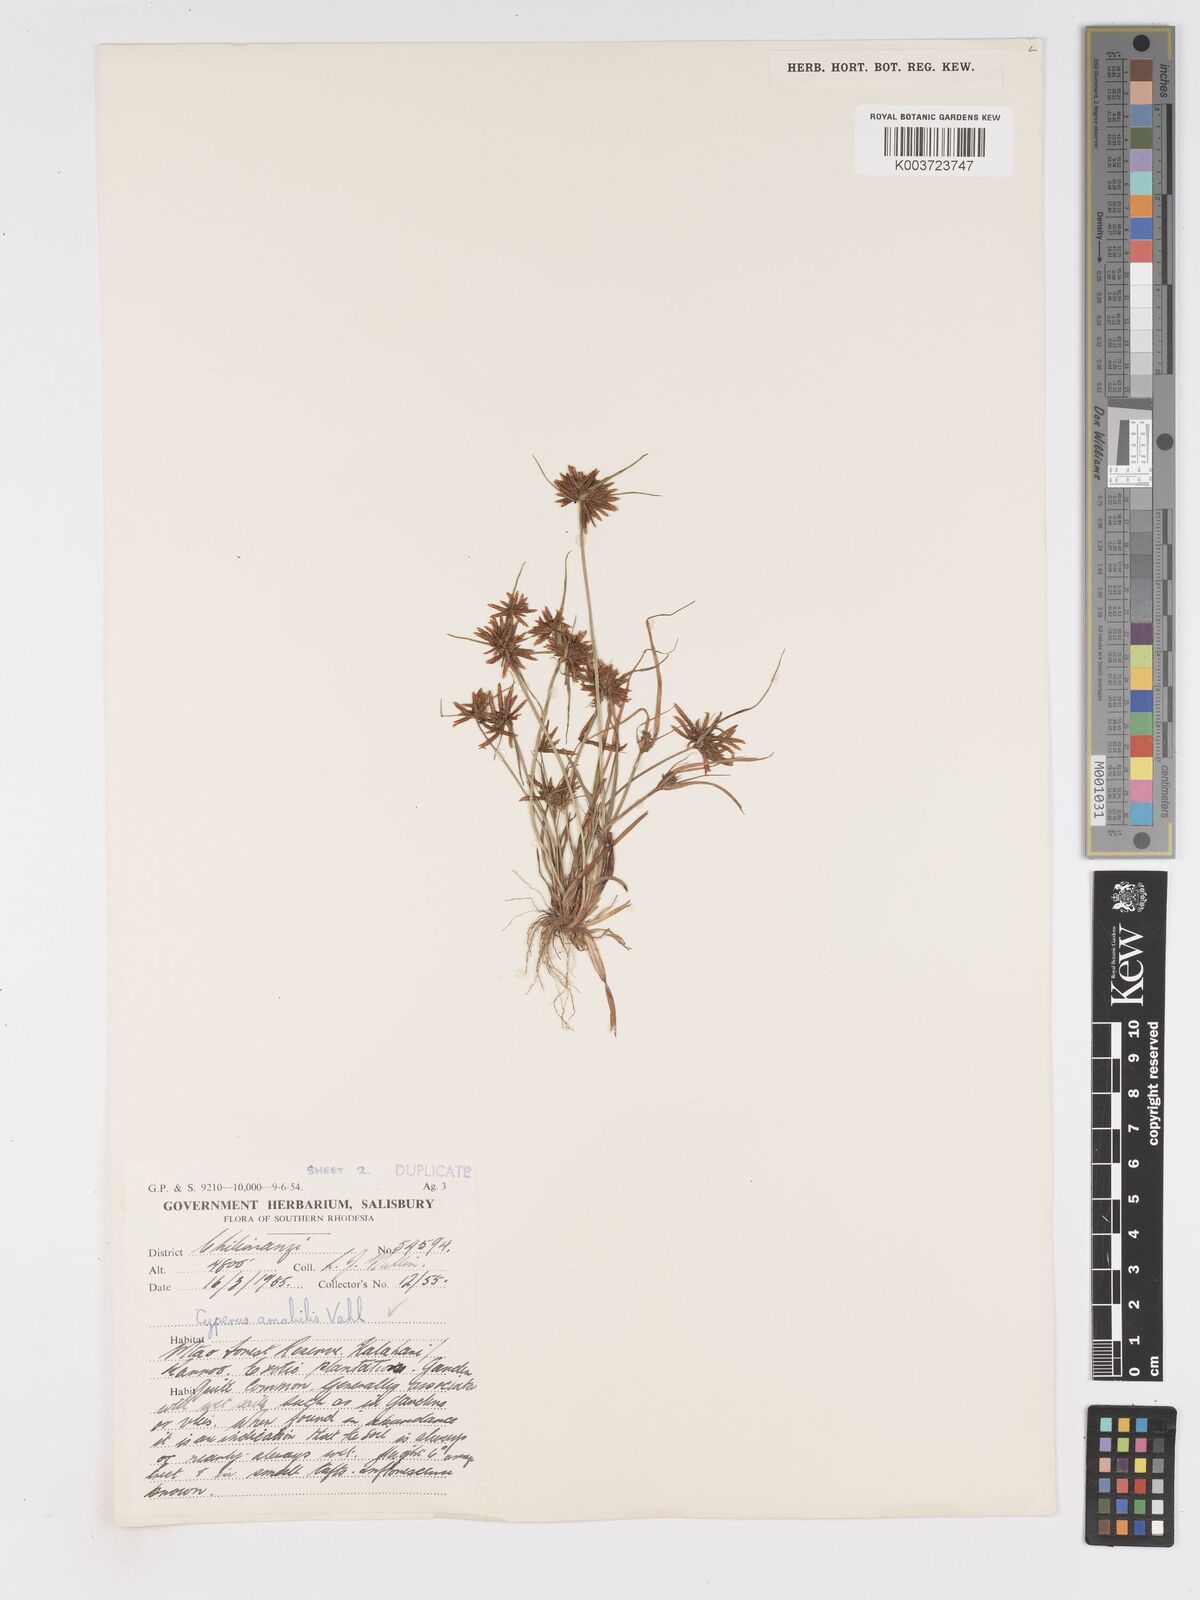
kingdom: Plantae
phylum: Tracheophyta
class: Liliopsida
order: Poales
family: Cyperaceae
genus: Cyperus
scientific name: Cyperus amabilis
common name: Foothill flat sedge
